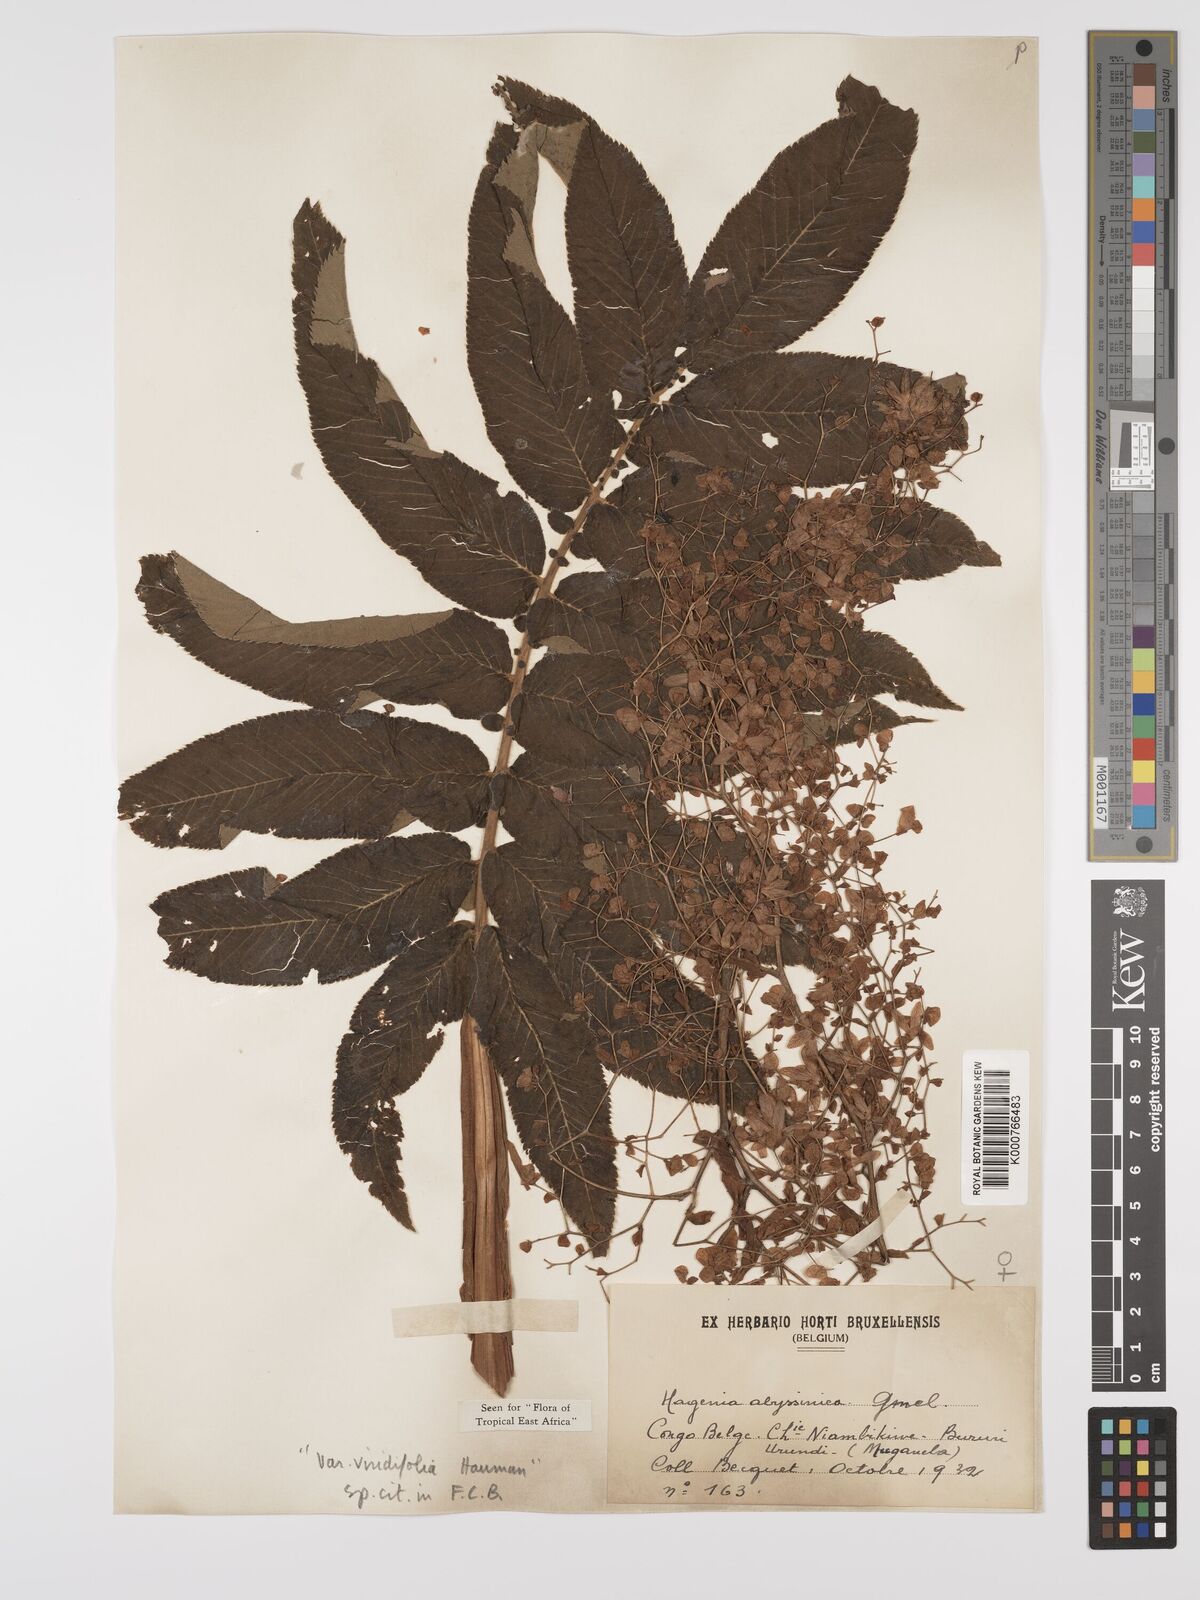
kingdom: Plantae
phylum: Tracheophyta
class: Magnoliopsida
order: Rosales
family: Rosaceae
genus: Hagenia
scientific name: Hagenia abyssinica
